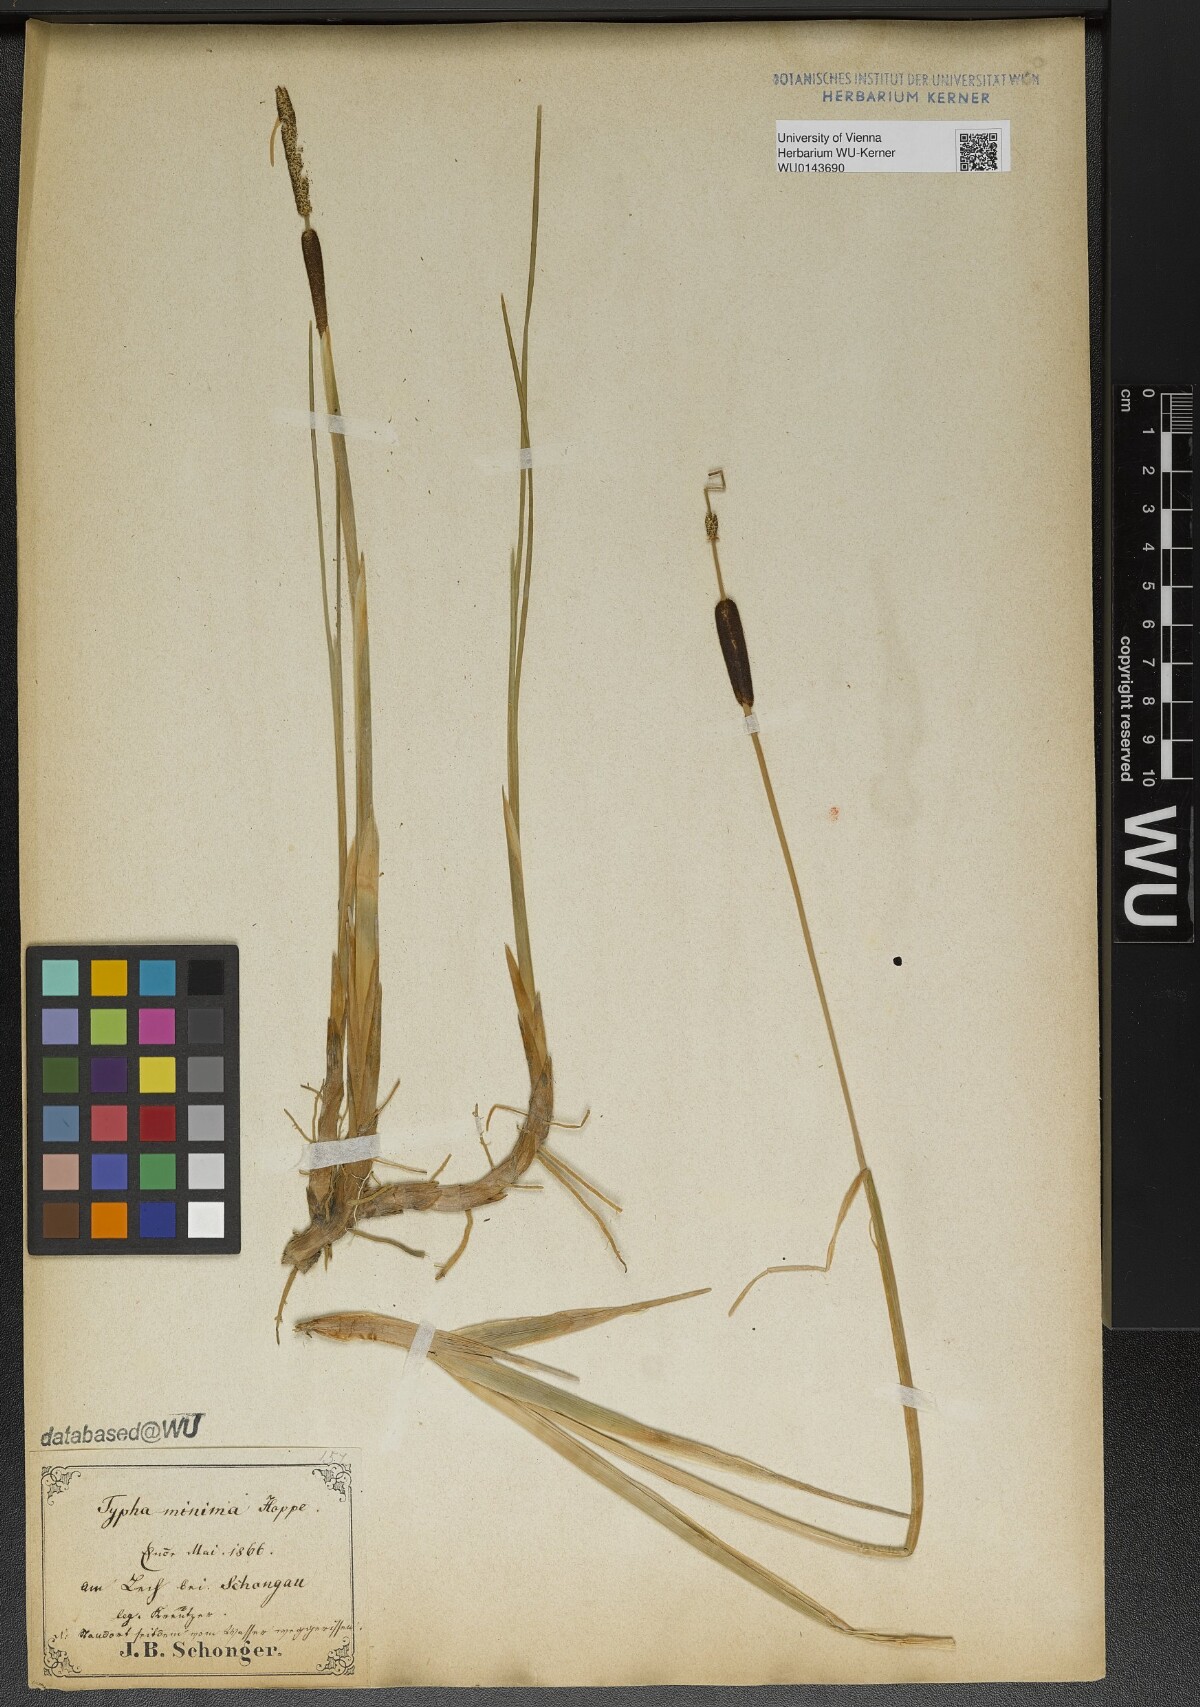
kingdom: Plantae
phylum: Tracheophyta
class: Liliopsida
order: Poales
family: Typhaceae
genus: Typha
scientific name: Typha minima
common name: Dwarf bulrush
